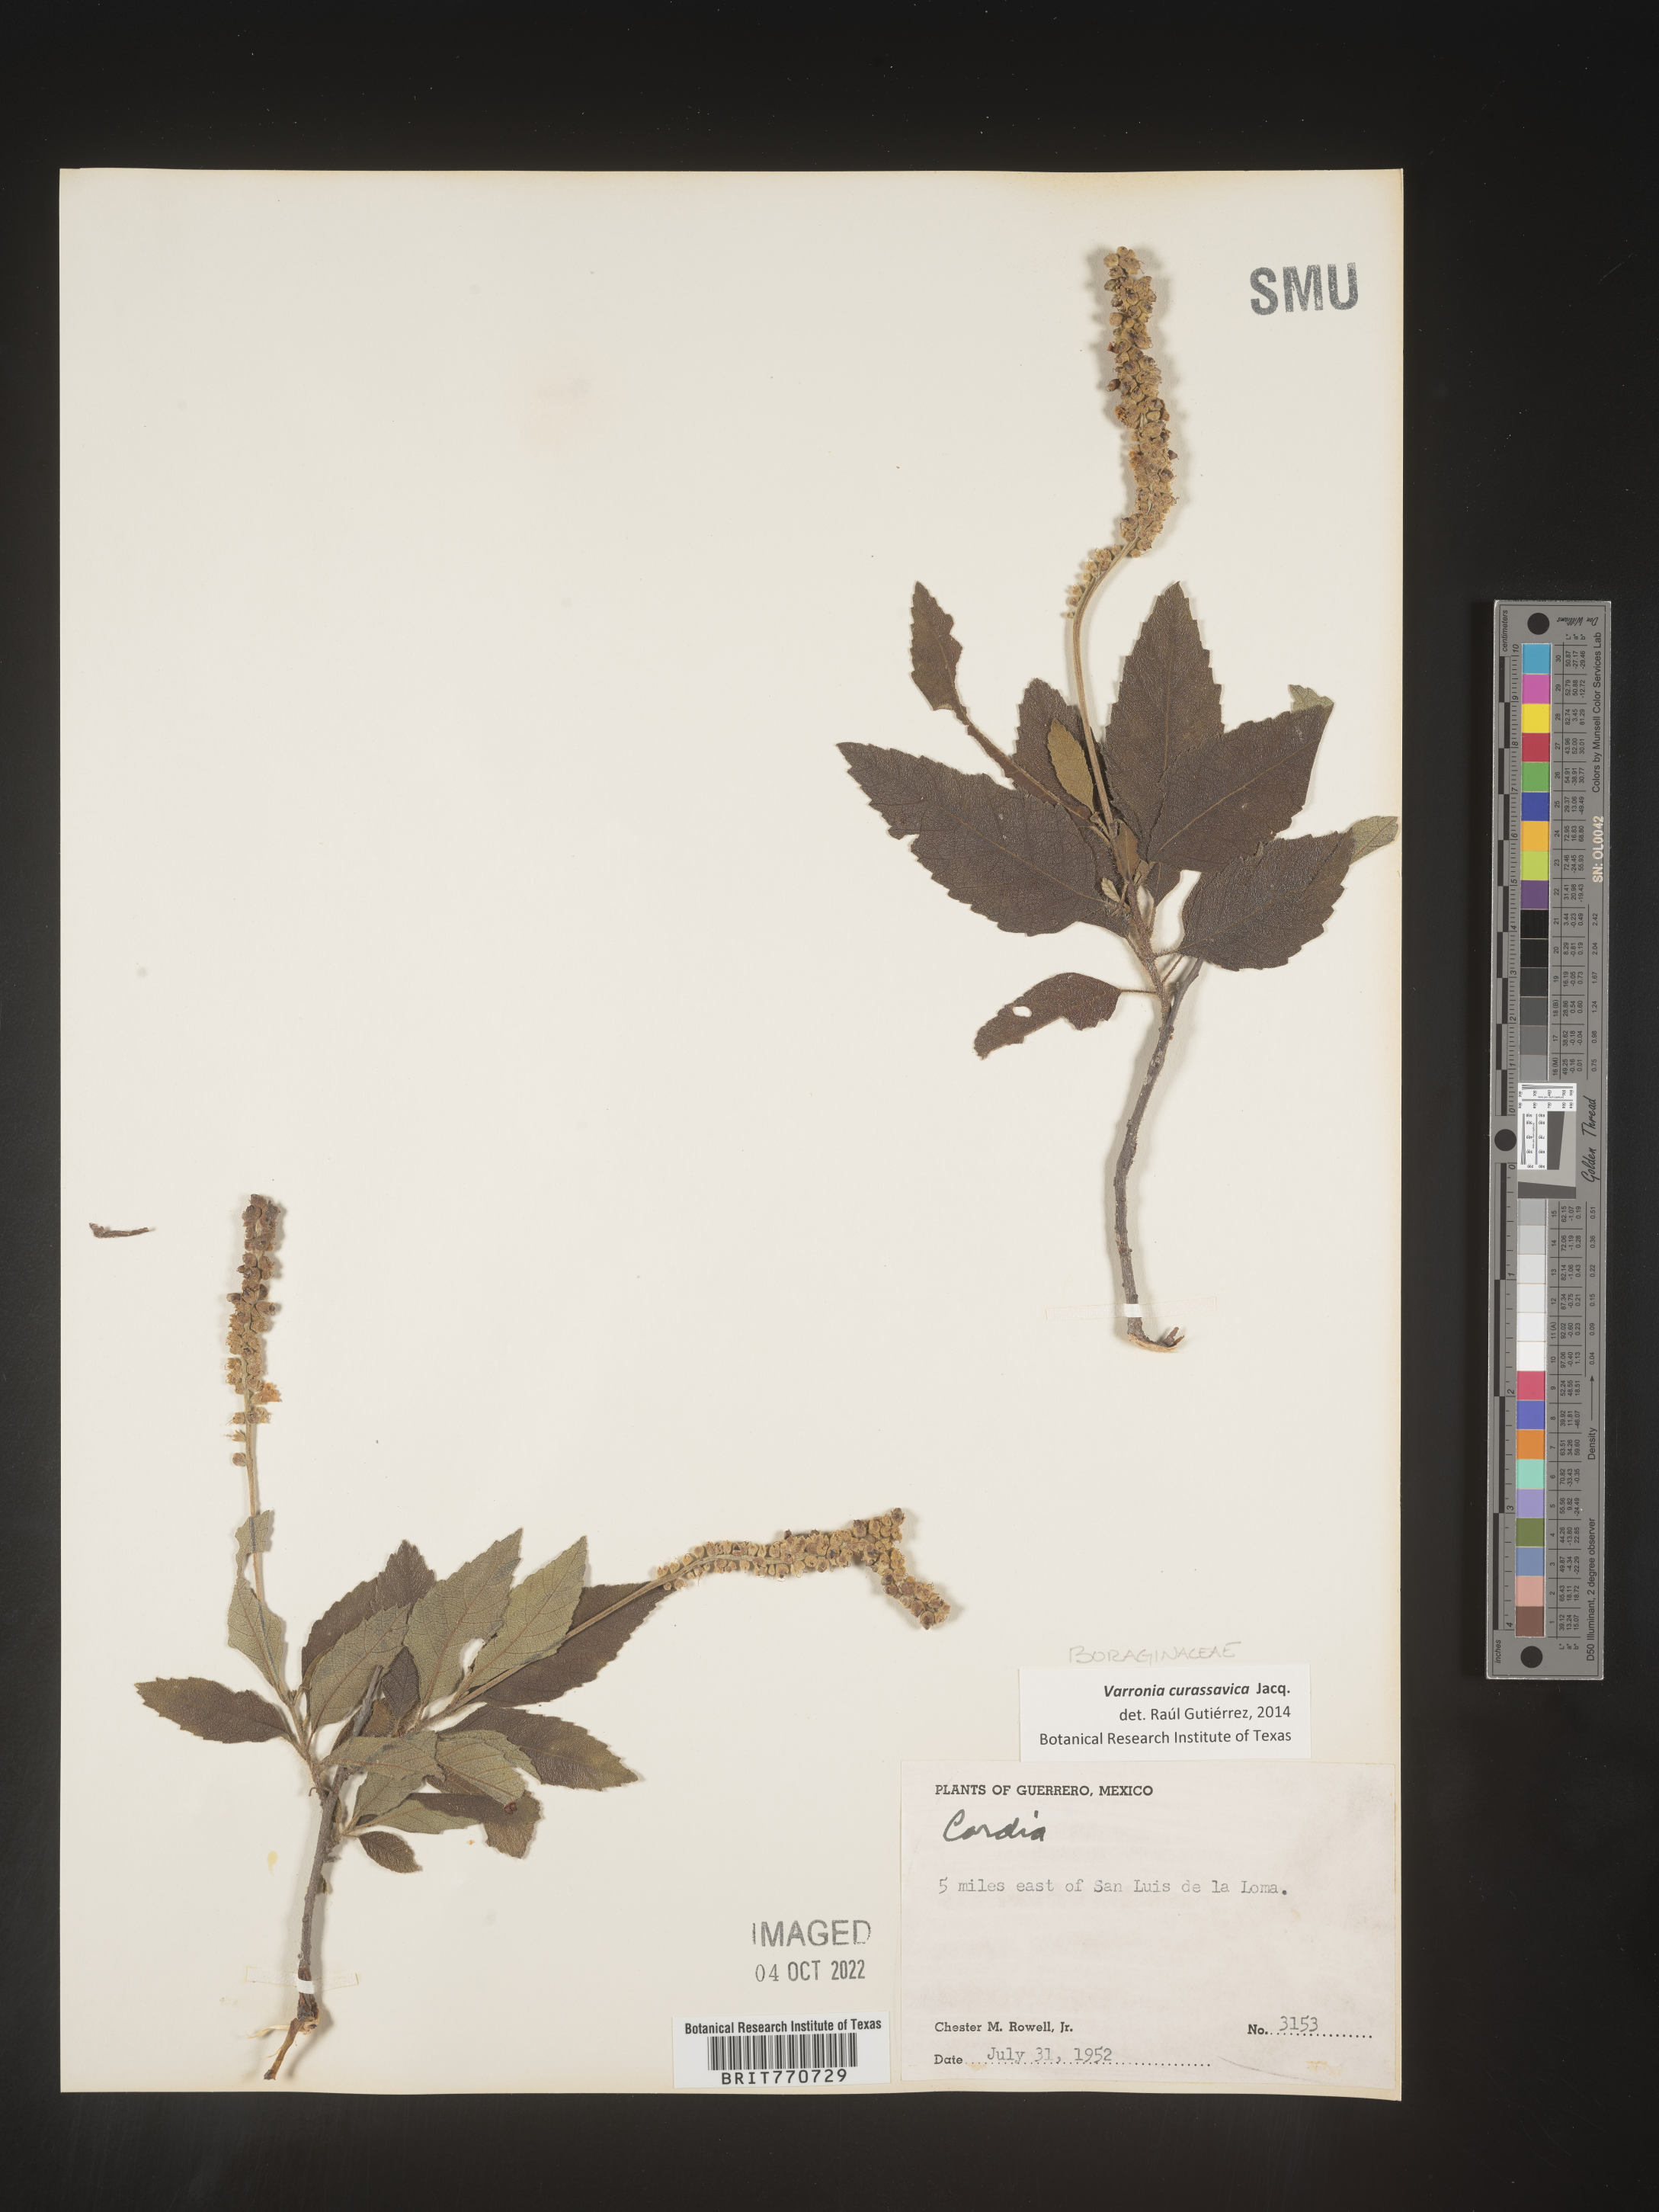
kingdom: Plantae
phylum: Tracheophyta
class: Magnoliopsida
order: Boraginales
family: Cordiaceae
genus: Varronia
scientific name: Varronia
